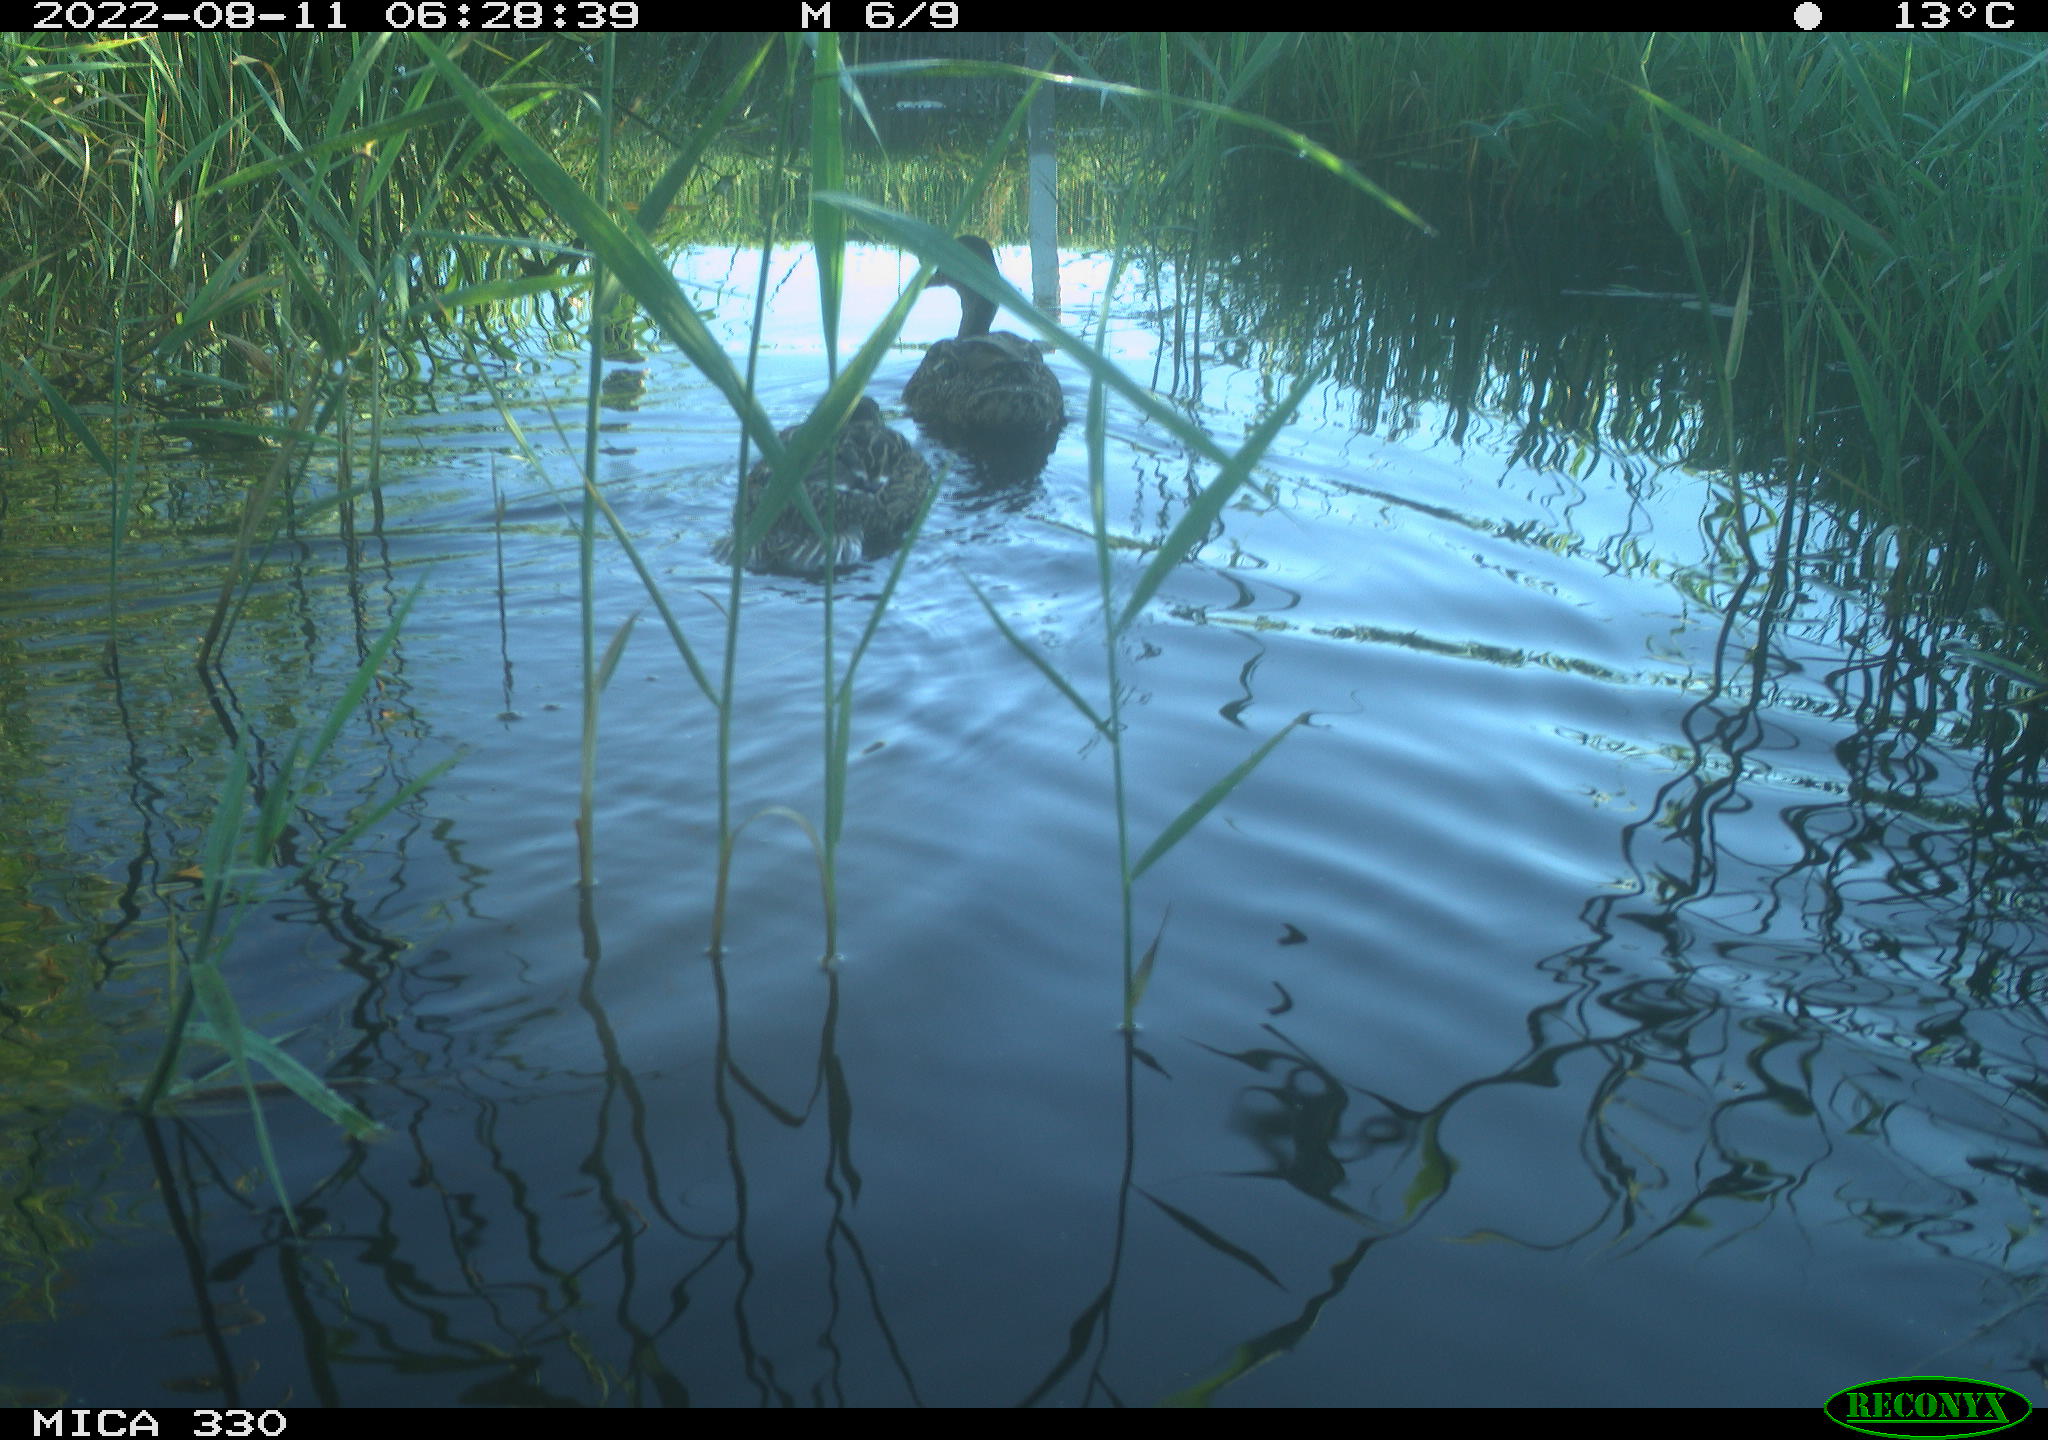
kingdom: Animalia
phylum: Chordata
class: Aves
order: Gruiformes
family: Rallidae
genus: Gallinula
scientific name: Gallinula chloropus
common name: Common moorhen
